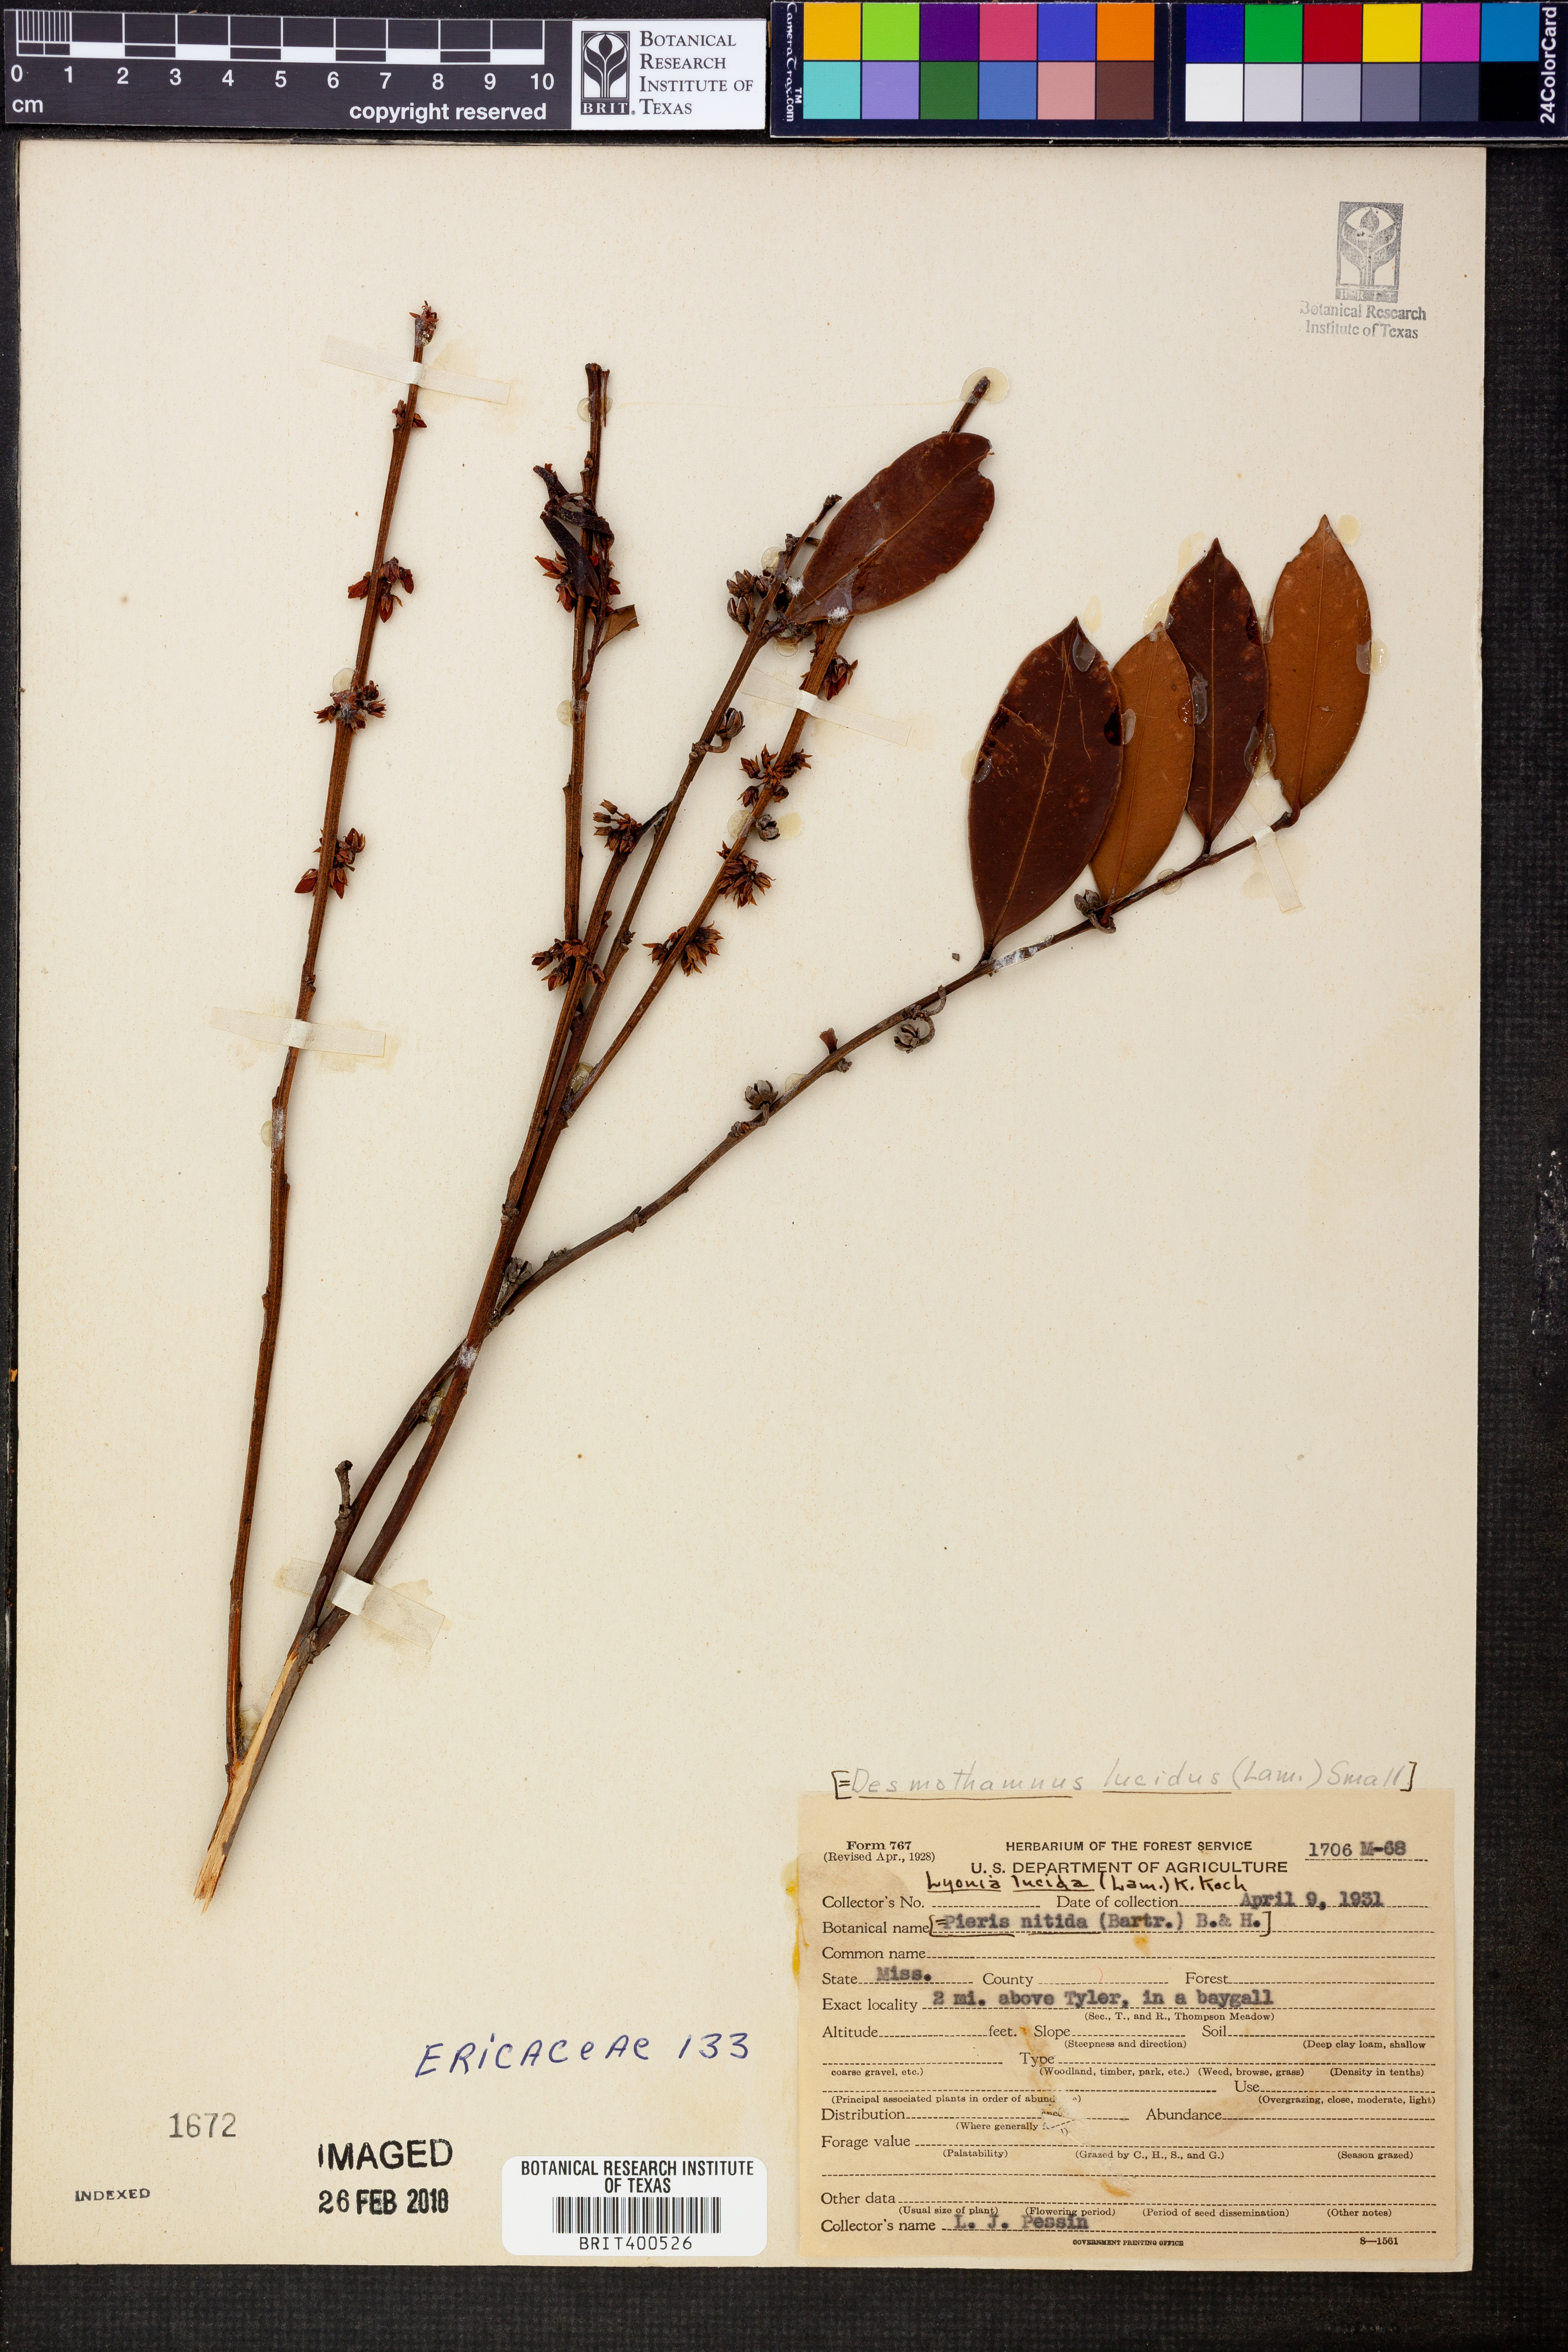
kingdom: Plantae
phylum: Tracheophyta
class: Magnoliopsida
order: Ericales
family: Ericaceae
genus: Lyonia
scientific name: Lyonia lucida
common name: Fetterbush
